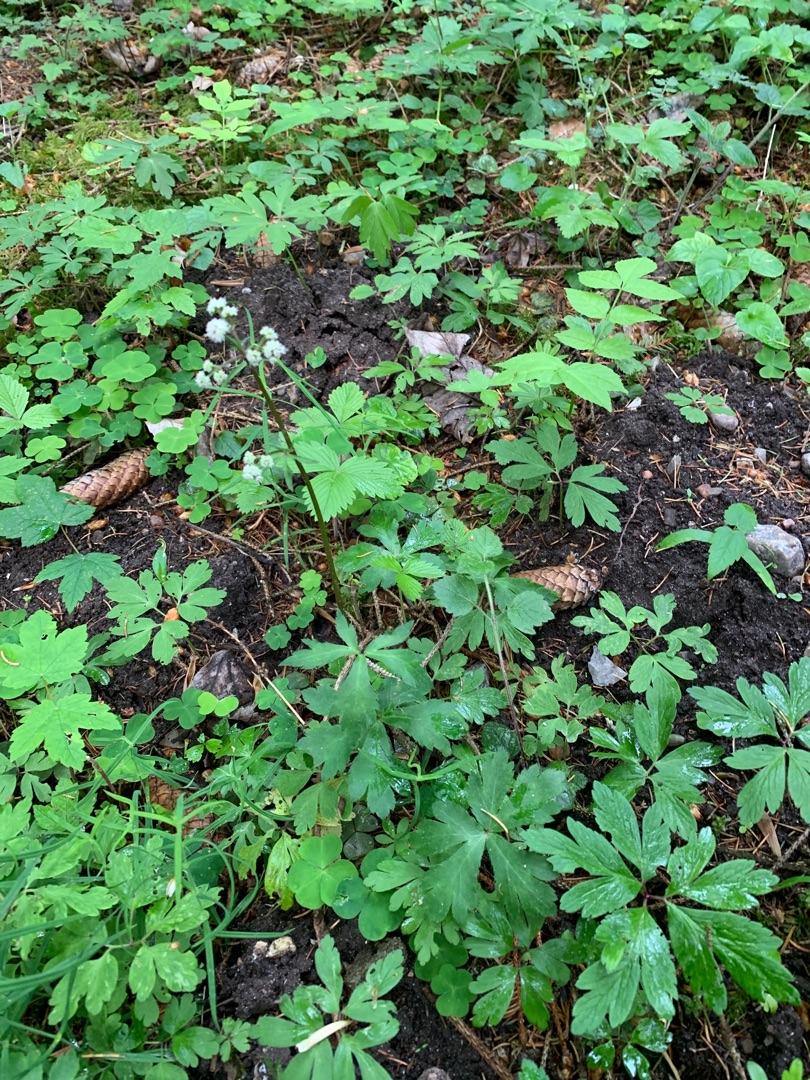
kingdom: Plantae
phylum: Tracheophyta
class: Magnoliopsida
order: Apiales
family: Apiaceae
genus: Sanicula
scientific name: Sanicula europaea
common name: Sanikel
